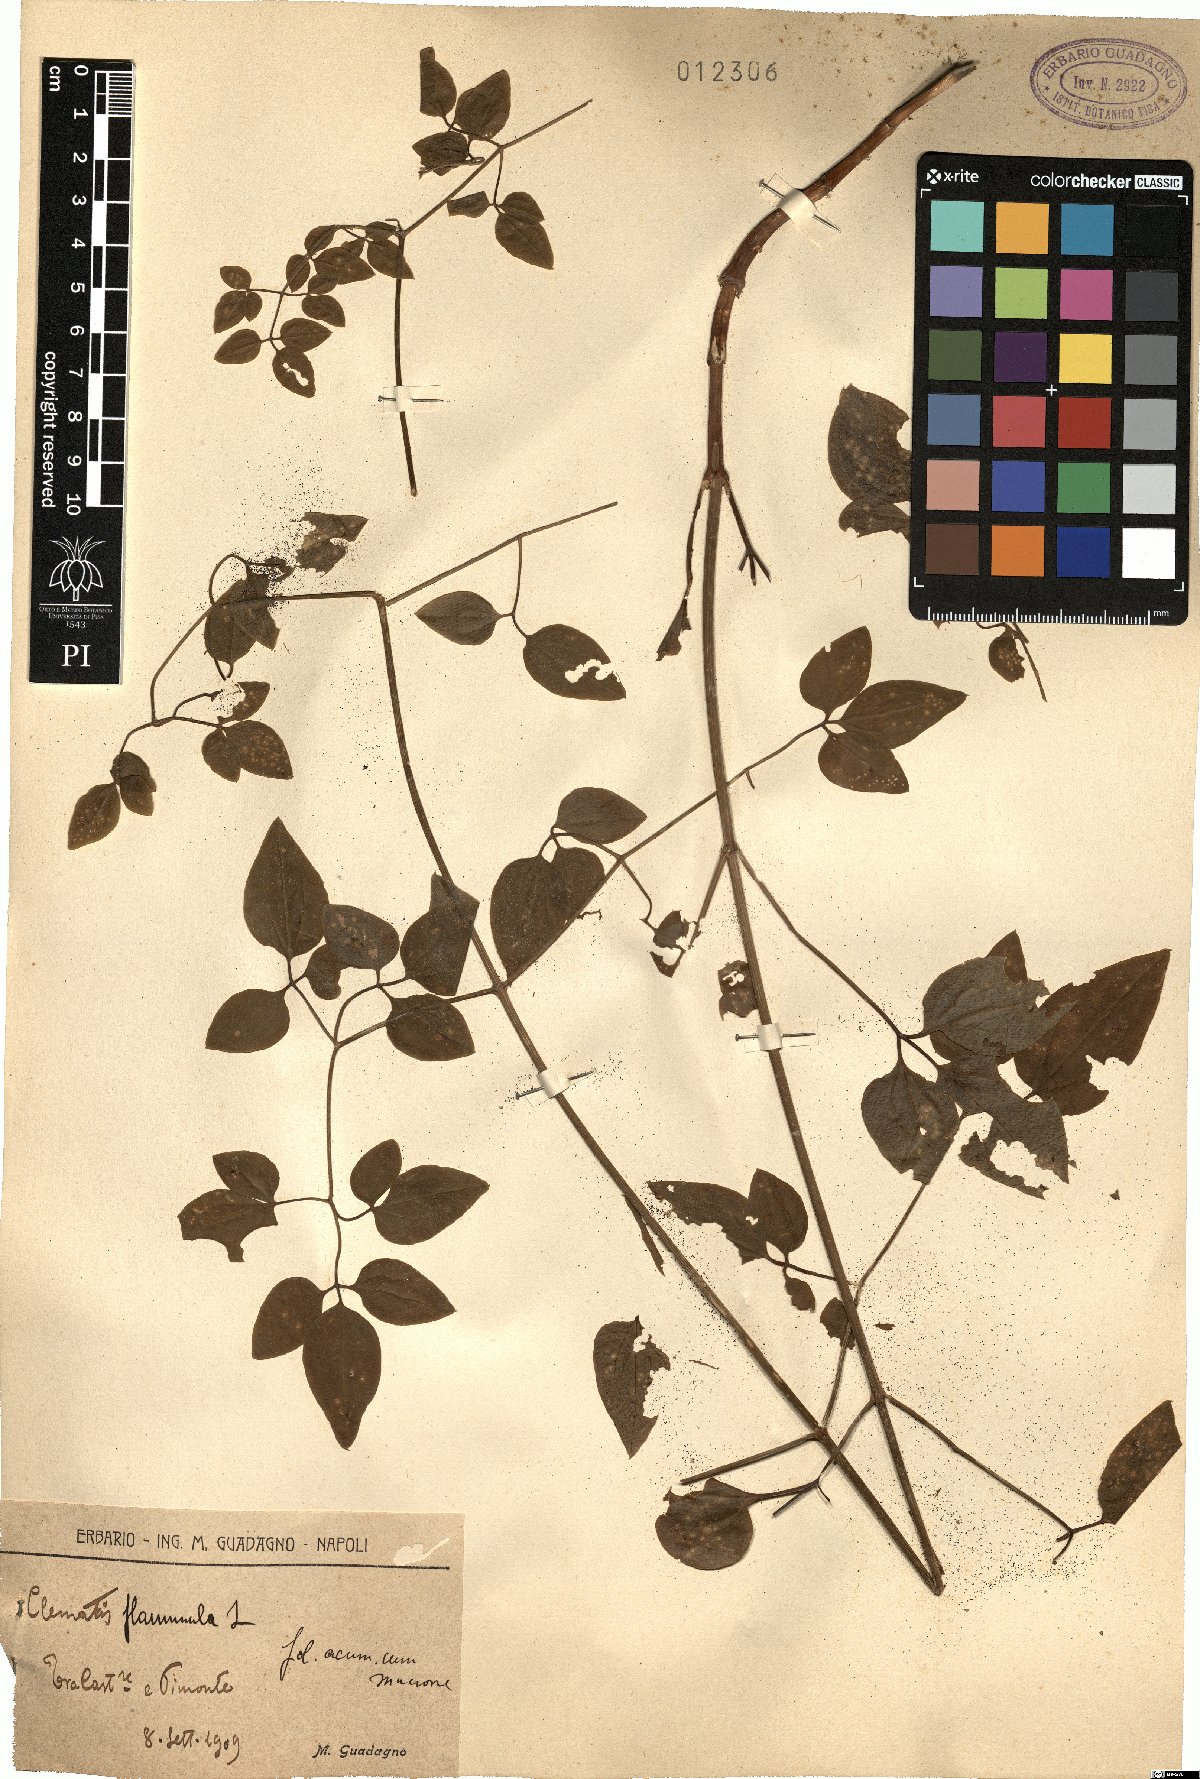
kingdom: Plantae
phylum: Tracheophyta
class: Magnoliopsida
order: Ranunculales
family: Ranunculaceae
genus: Clematis
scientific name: Clematis flammula
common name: Virgin's-bower
